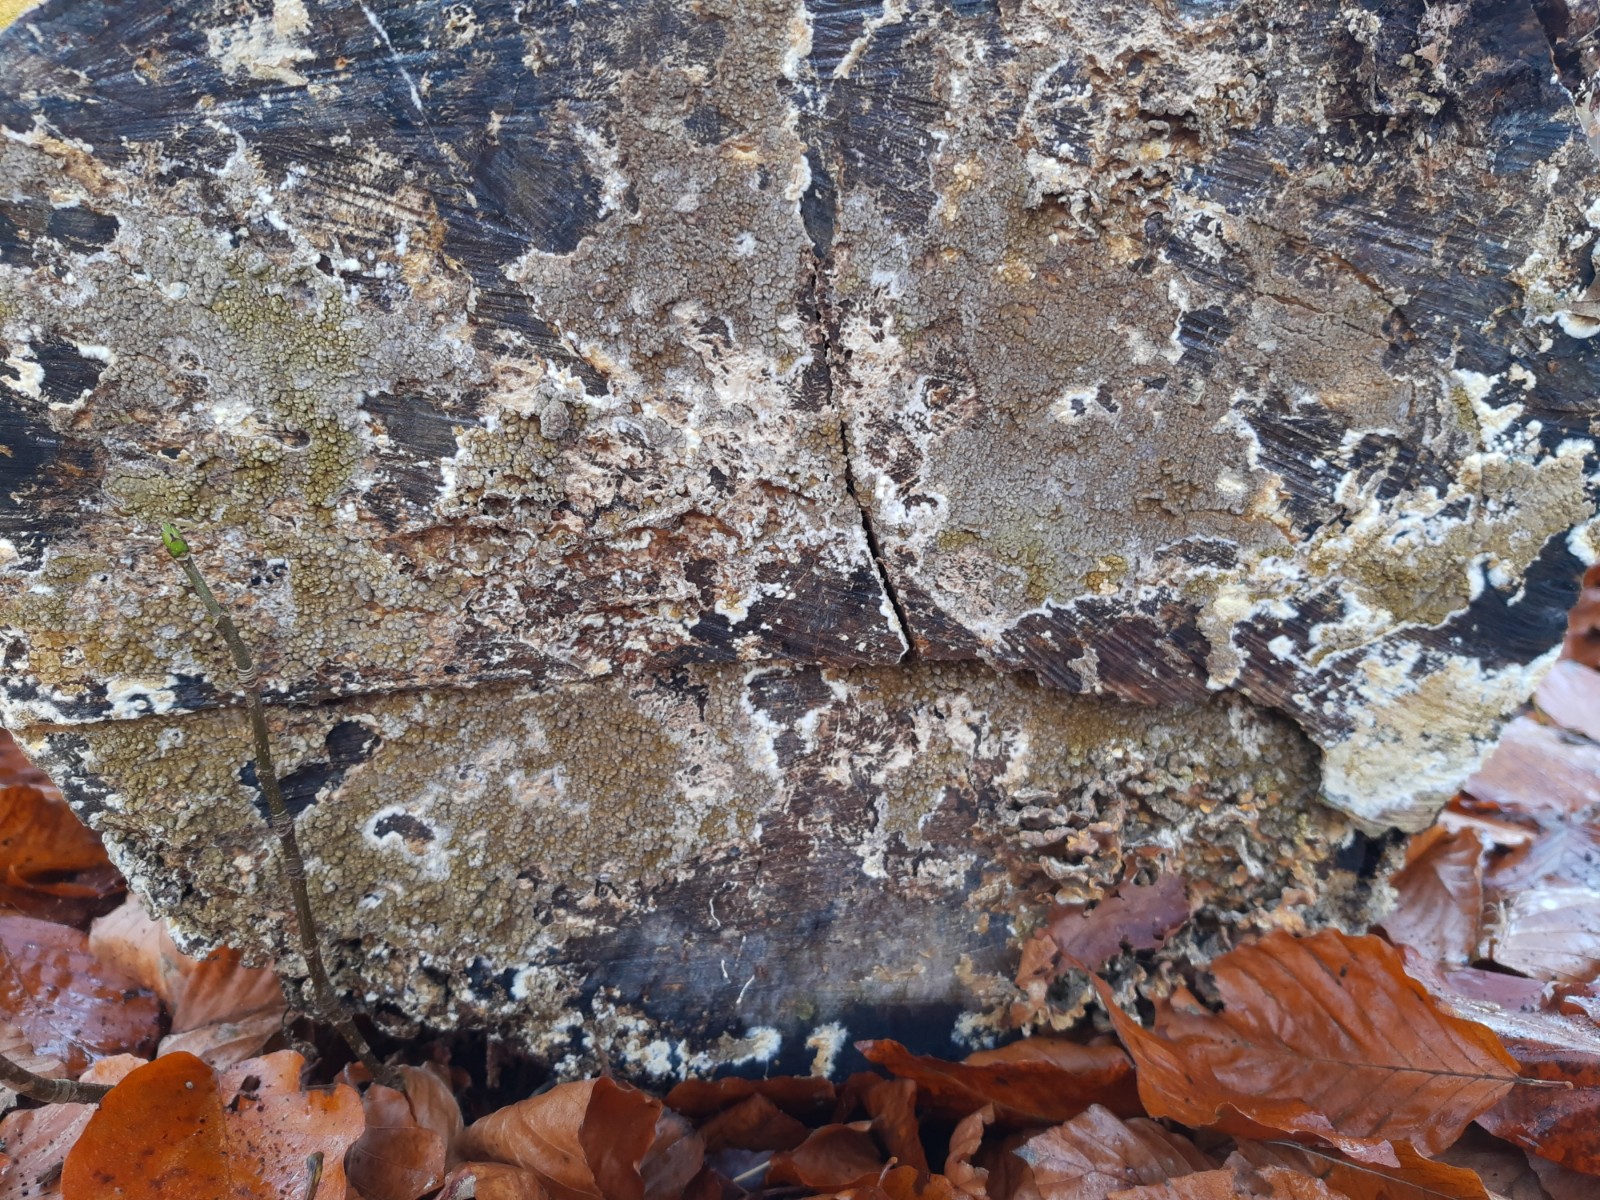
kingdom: Fungi
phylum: Basidiomycota
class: Agaricomycetes
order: Boletales
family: Coniophoraceae
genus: Coniophora
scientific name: Coniophora puteana
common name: gul tømmersvamp
